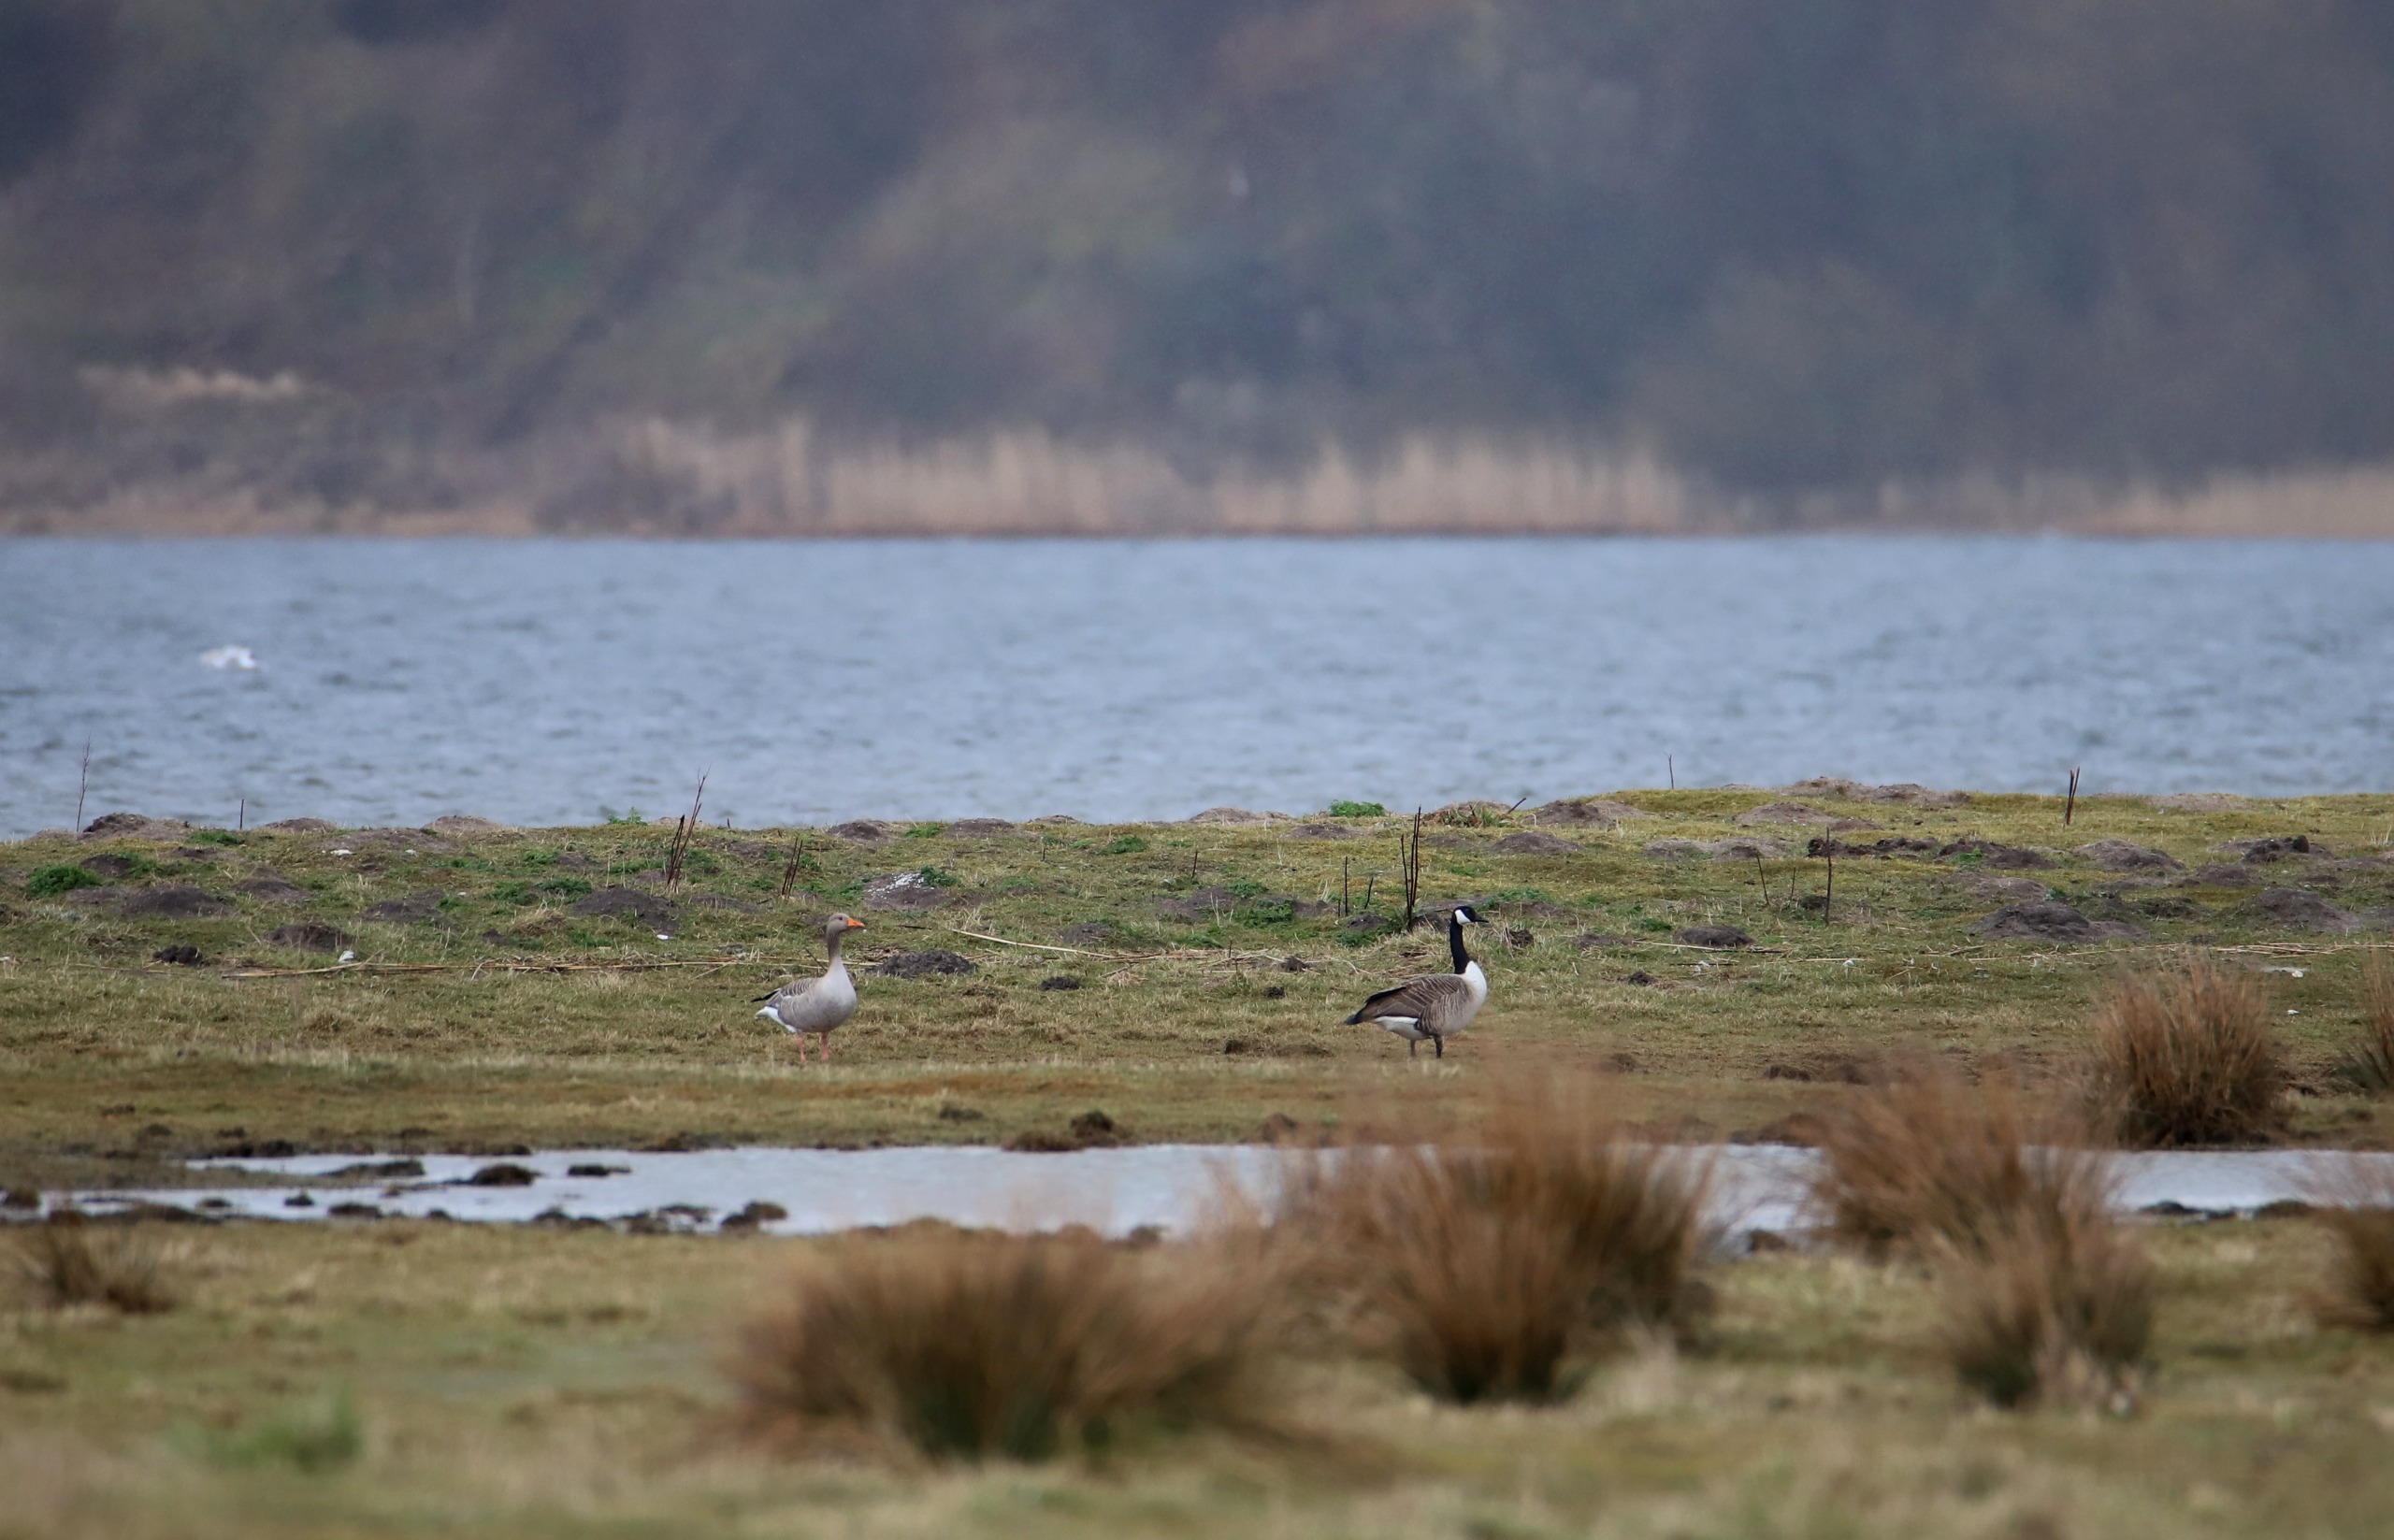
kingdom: Animalia
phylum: Chordata
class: Aves
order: Anseriformes
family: Anatidae
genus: Branta
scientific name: Branta canadensis
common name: Canadagås
